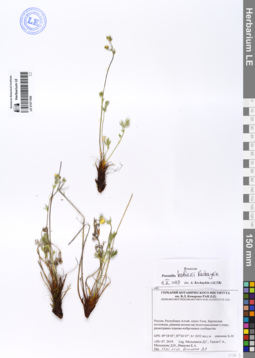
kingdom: Plantae
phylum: Tracheophyta
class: Magnoliopsida
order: Rosales
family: Rosaceae
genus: Potentilla
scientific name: Potentilla habievii
